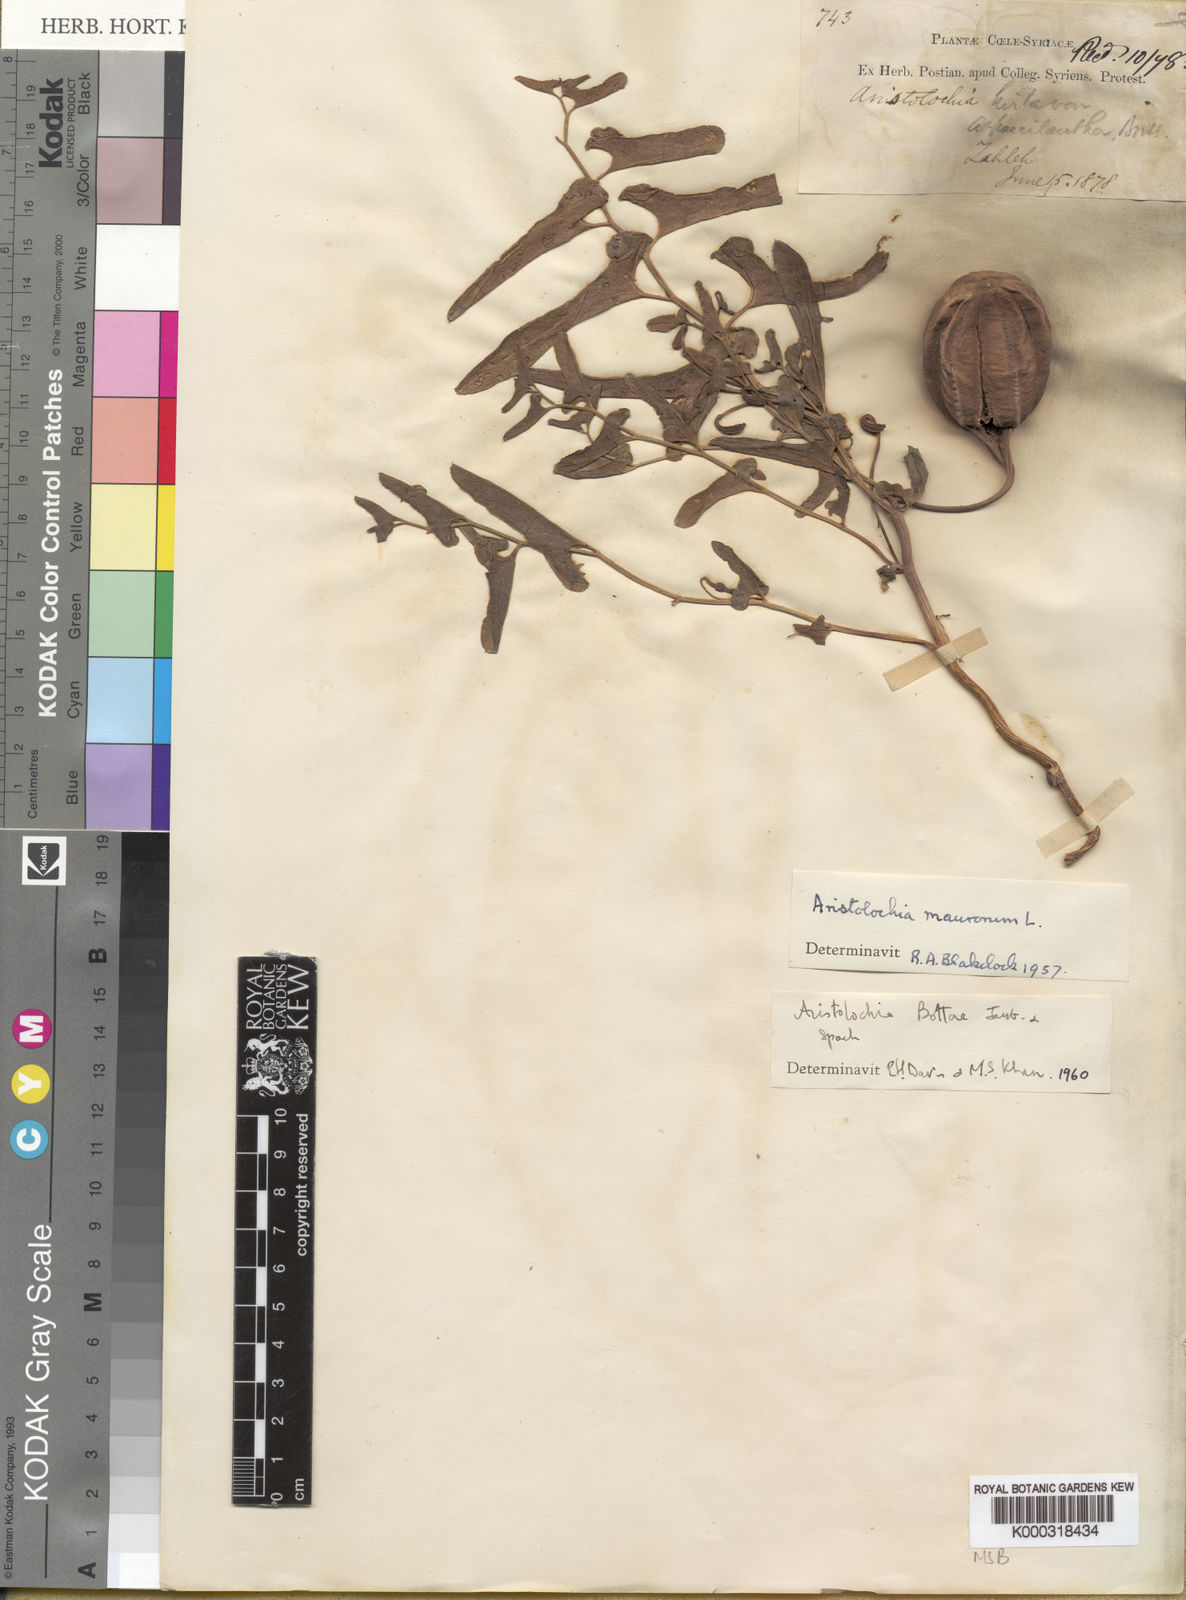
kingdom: Plantae
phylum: Tracheophyta
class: Magnoliopsida
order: Piperales
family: Aristolochiaceae
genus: Aristolochia
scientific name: Aristolochia bottae
